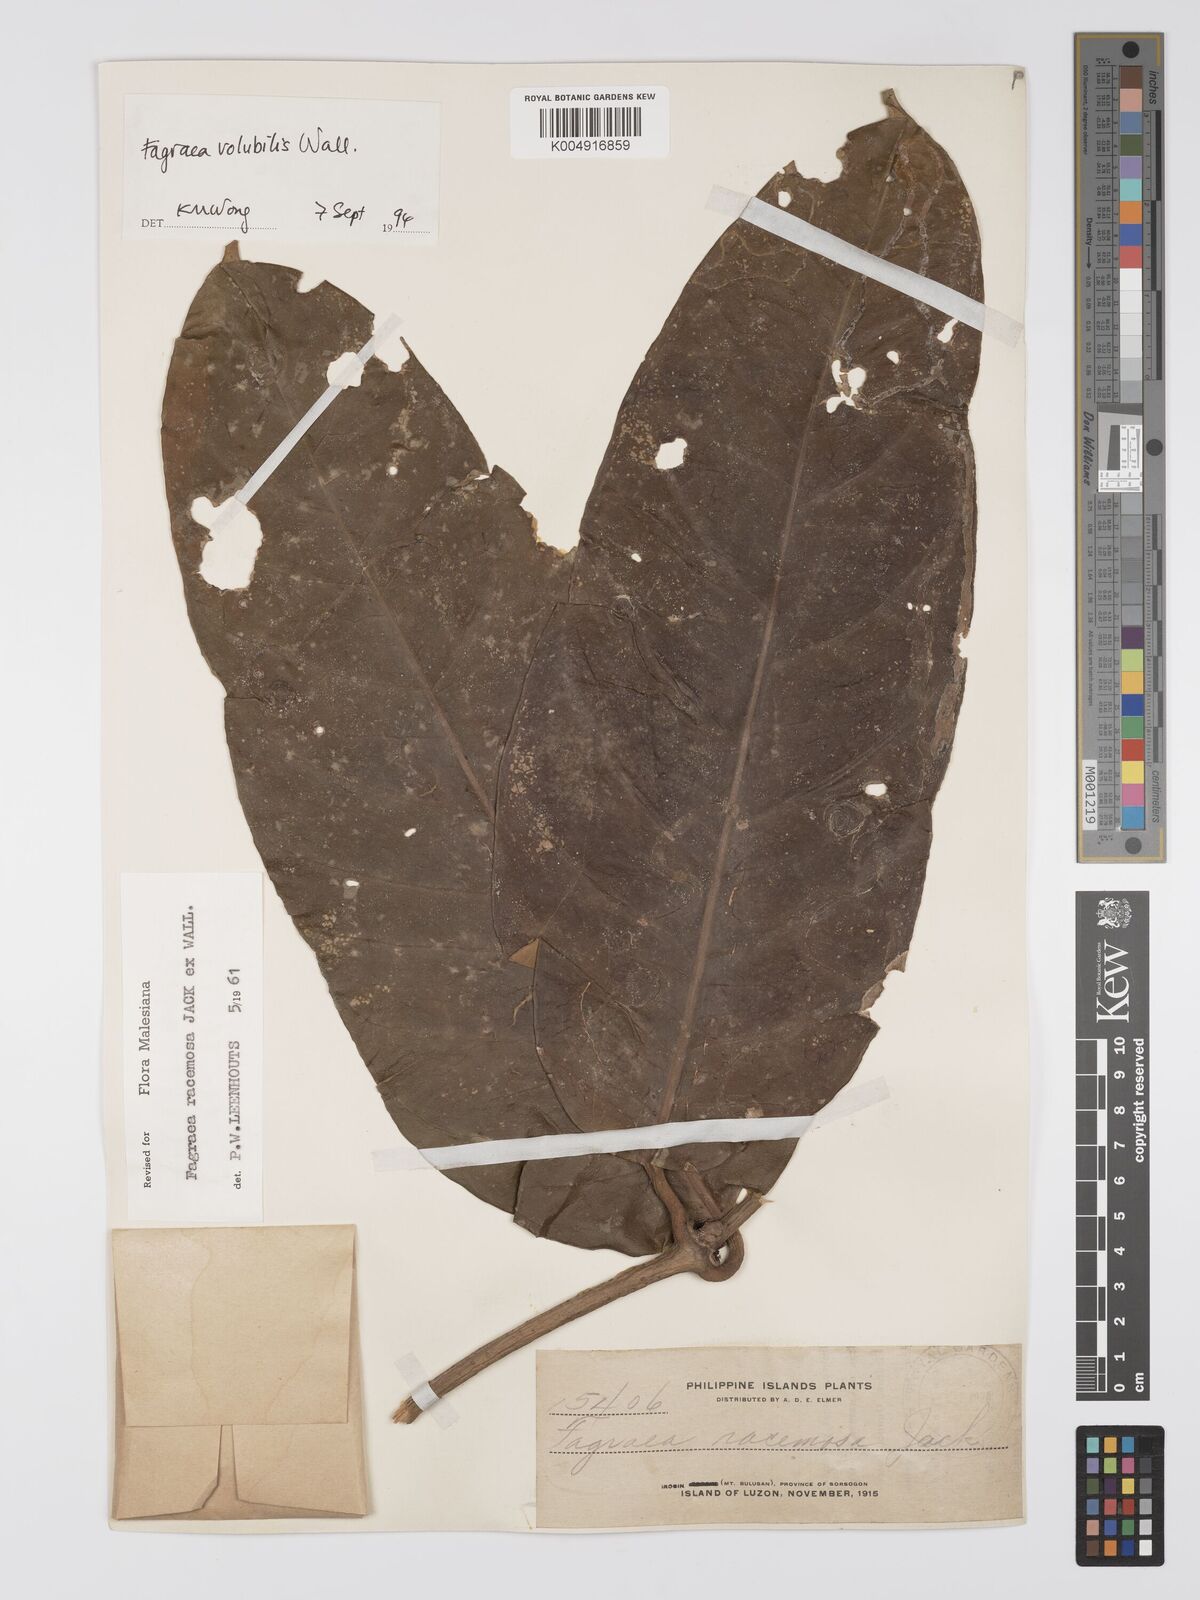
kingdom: Plantae
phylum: Tracheophyta
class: Magnoliopsida
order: Gentianales
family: Gentianaceae
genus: Utania
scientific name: Utania racemosa
